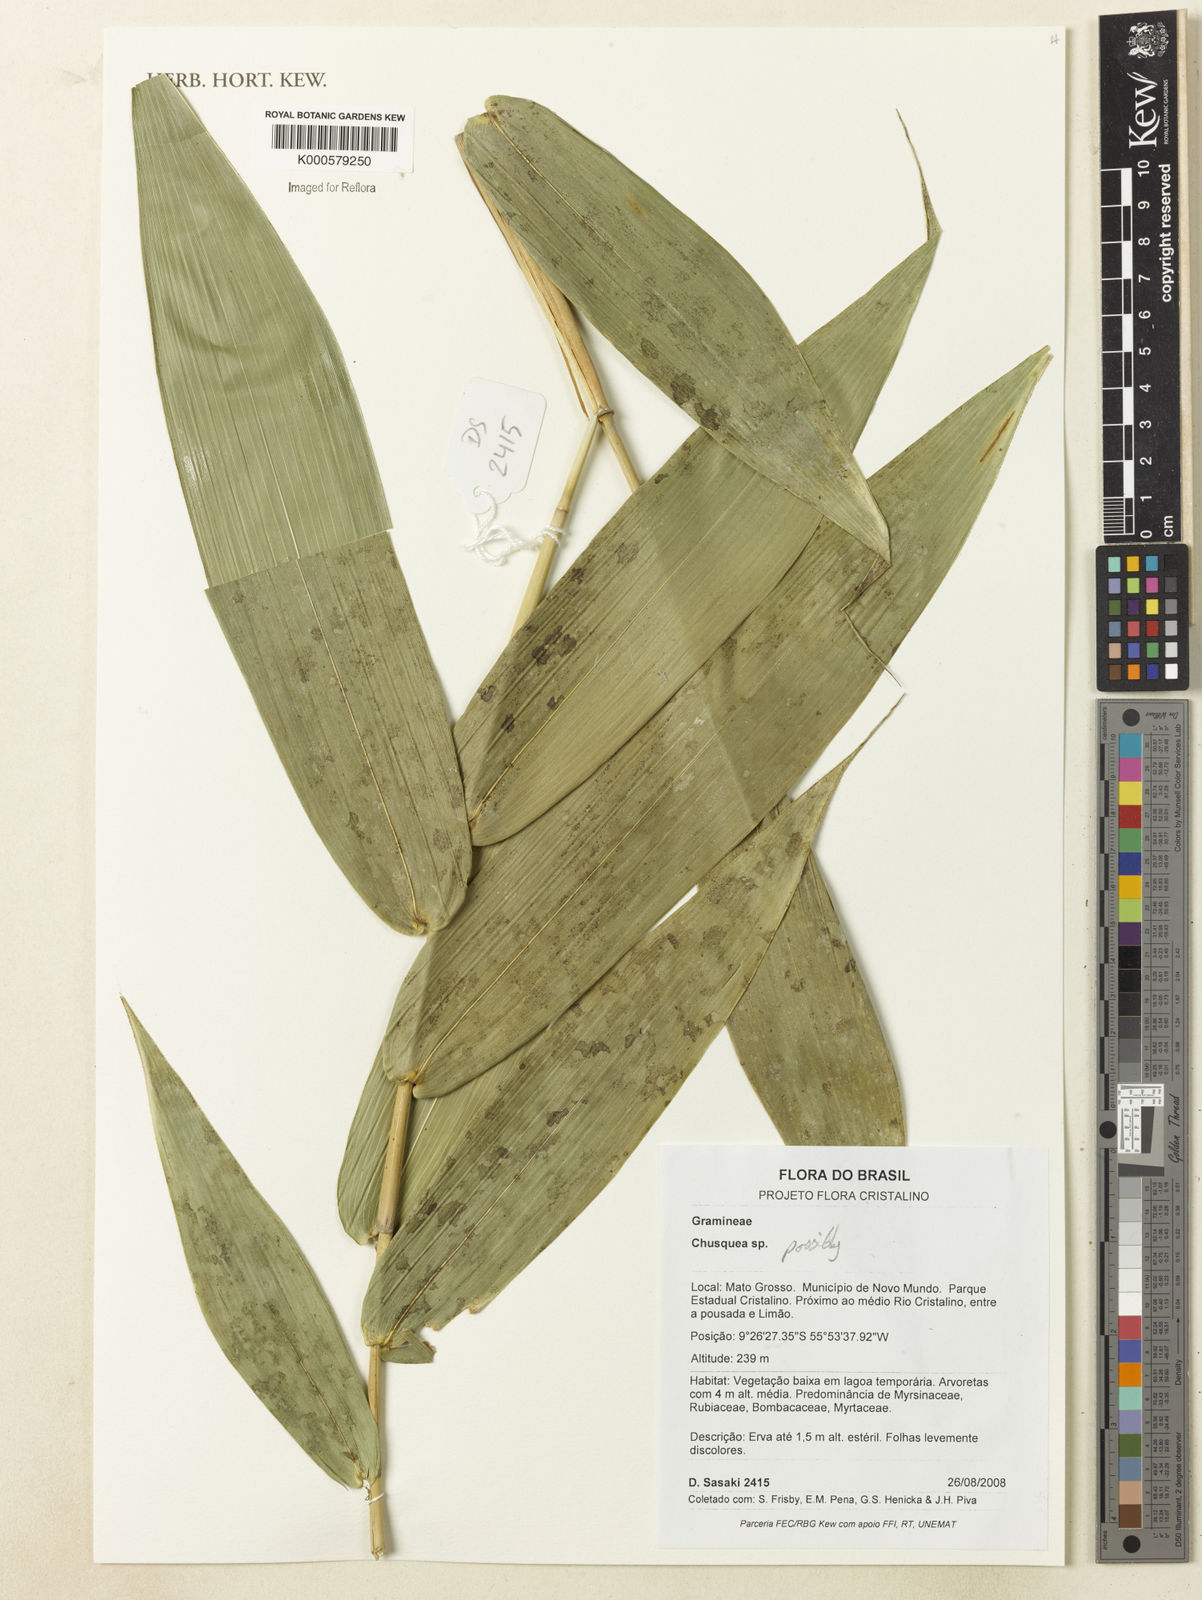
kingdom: Plantae
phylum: Tracheophyta
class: Liliopsida
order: Poales
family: Poaceae
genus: Chusquea
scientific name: Chusquea
